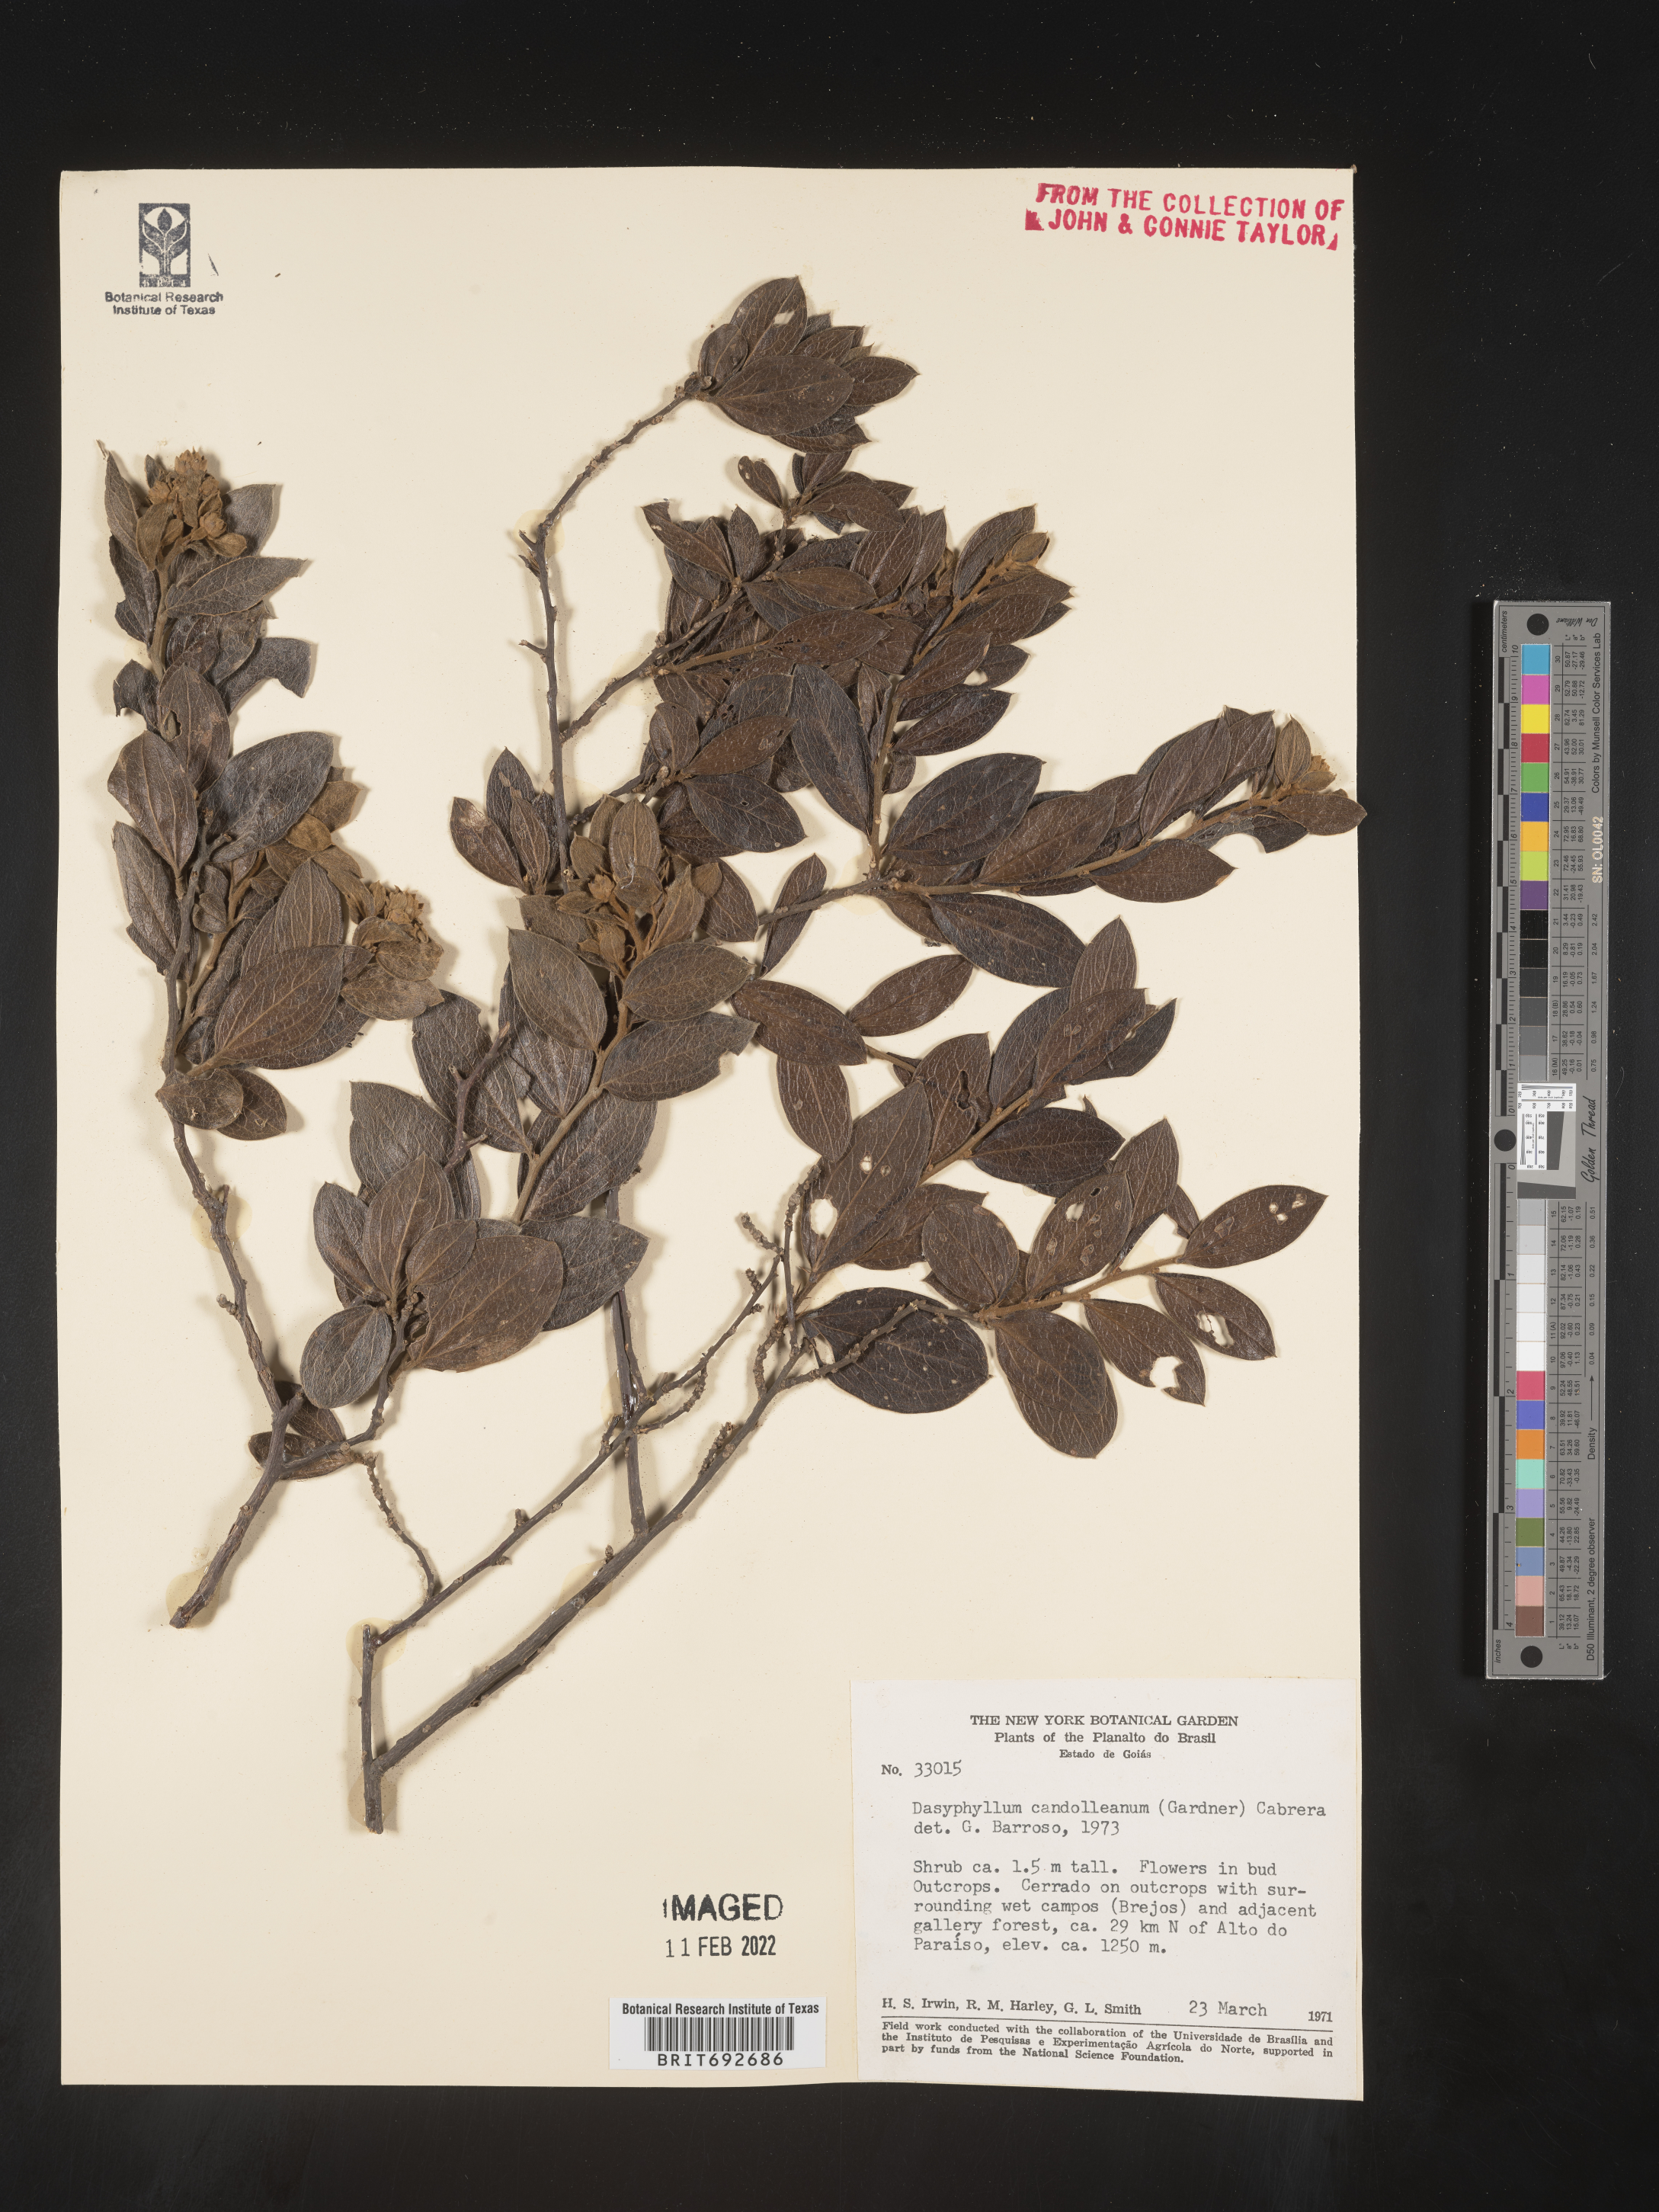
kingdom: Plantae
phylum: Tracheophyta
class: Magnoliopsida
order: Asterales
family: Asteraceae
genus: Dasyphyllum
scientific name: Dasyphyllum
